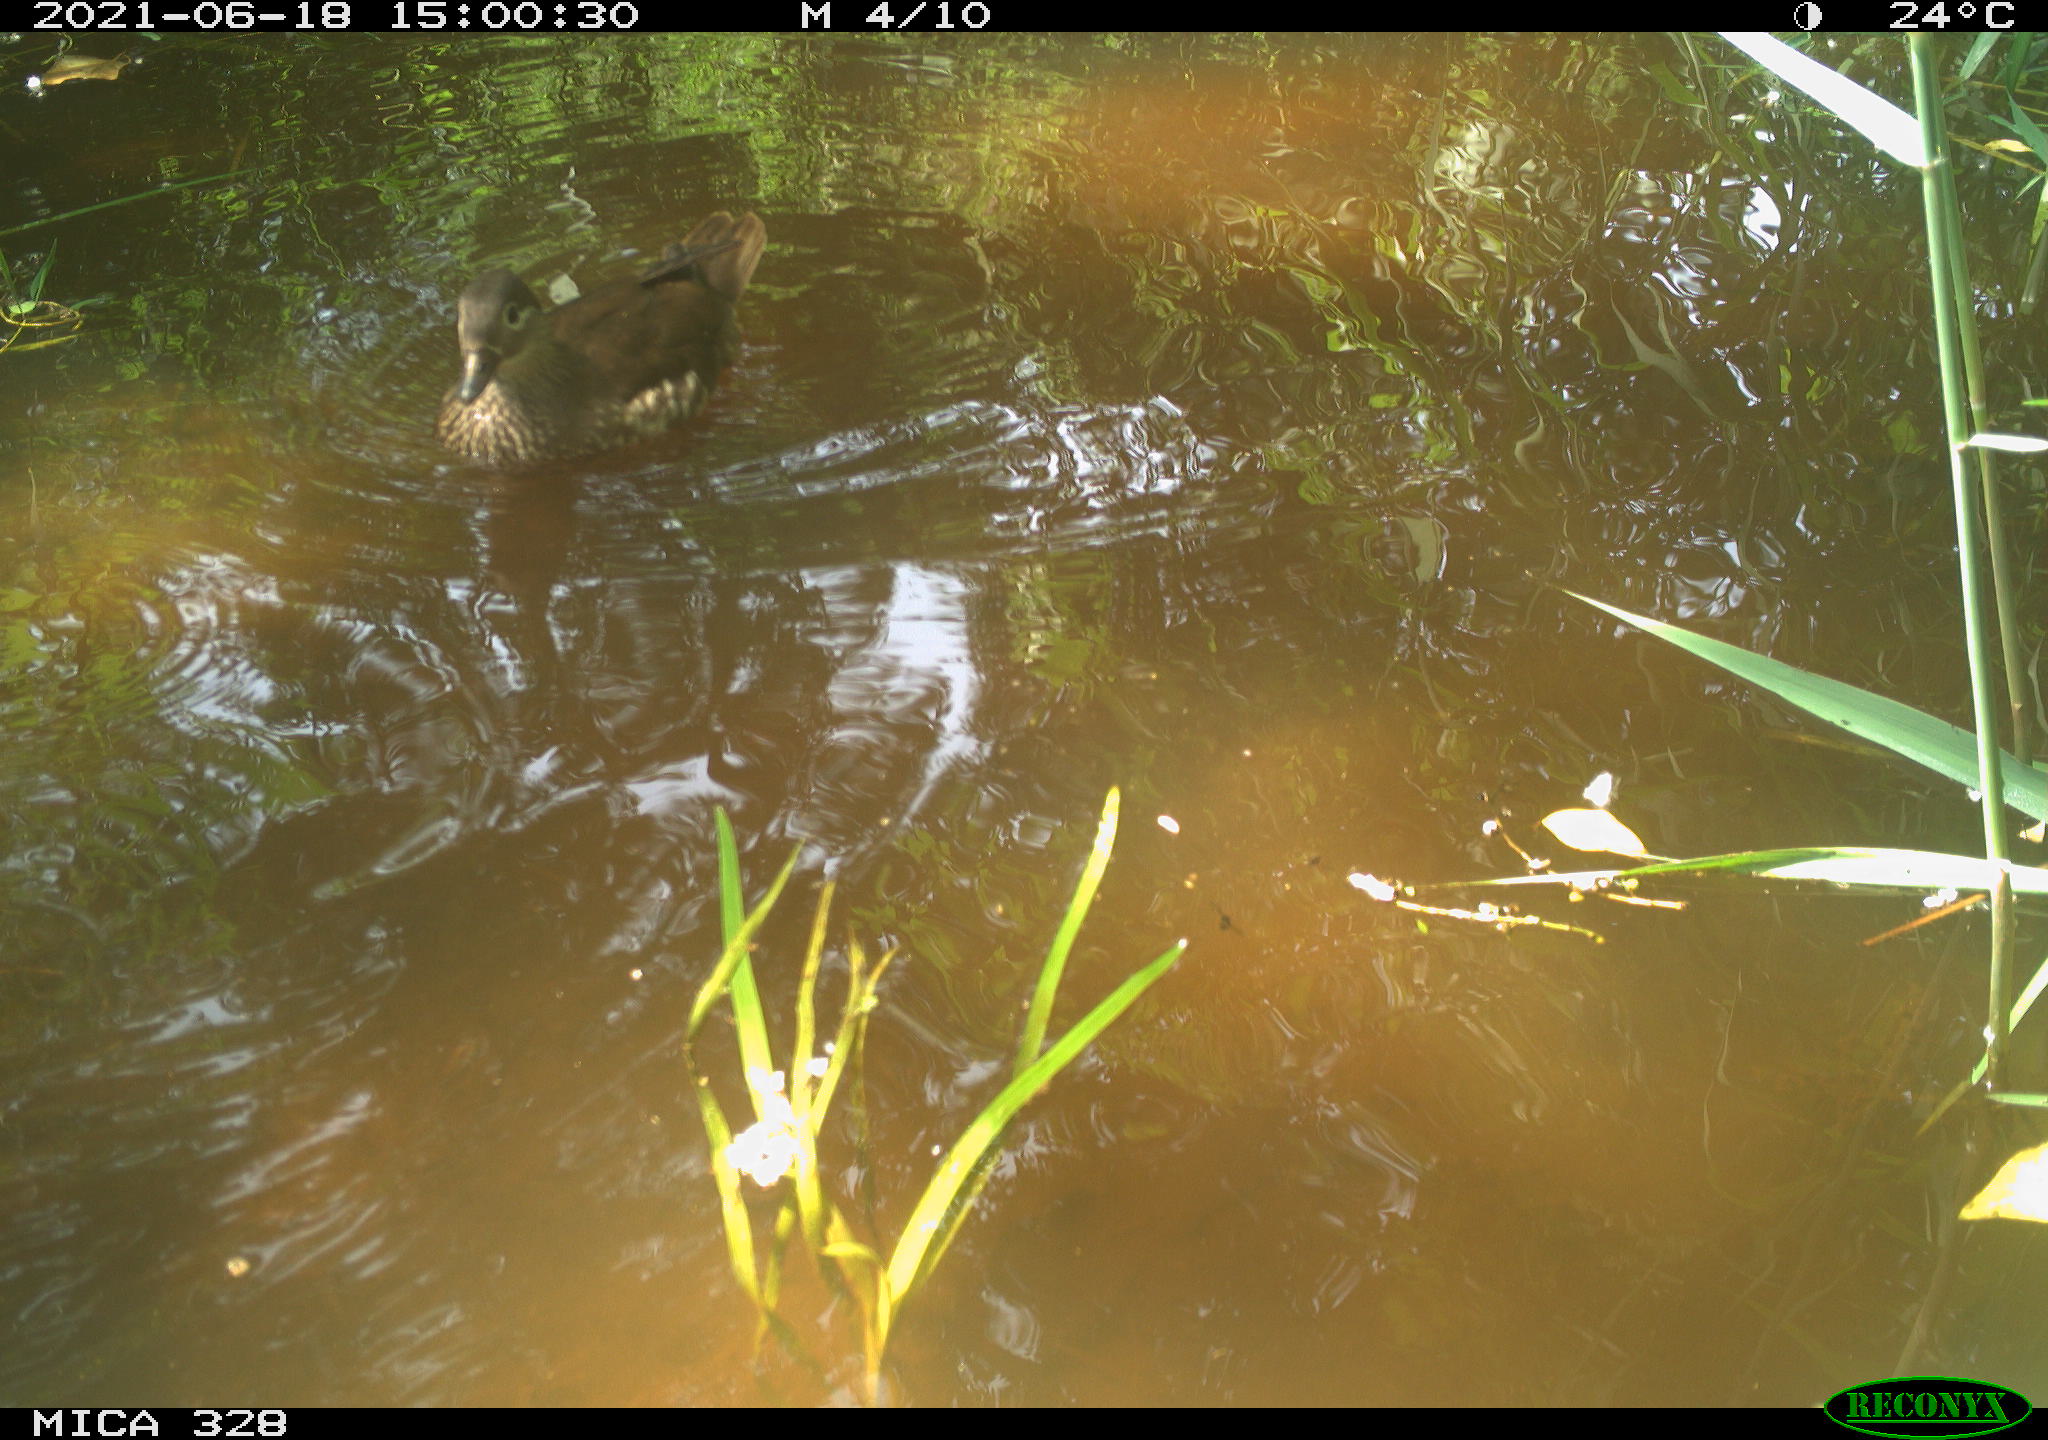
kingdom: Animalia
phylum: Chordata
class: Aves
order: Anseriformes
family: Anatidae
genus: Aix
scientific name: Aix galericulata
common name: Mandarin duck
